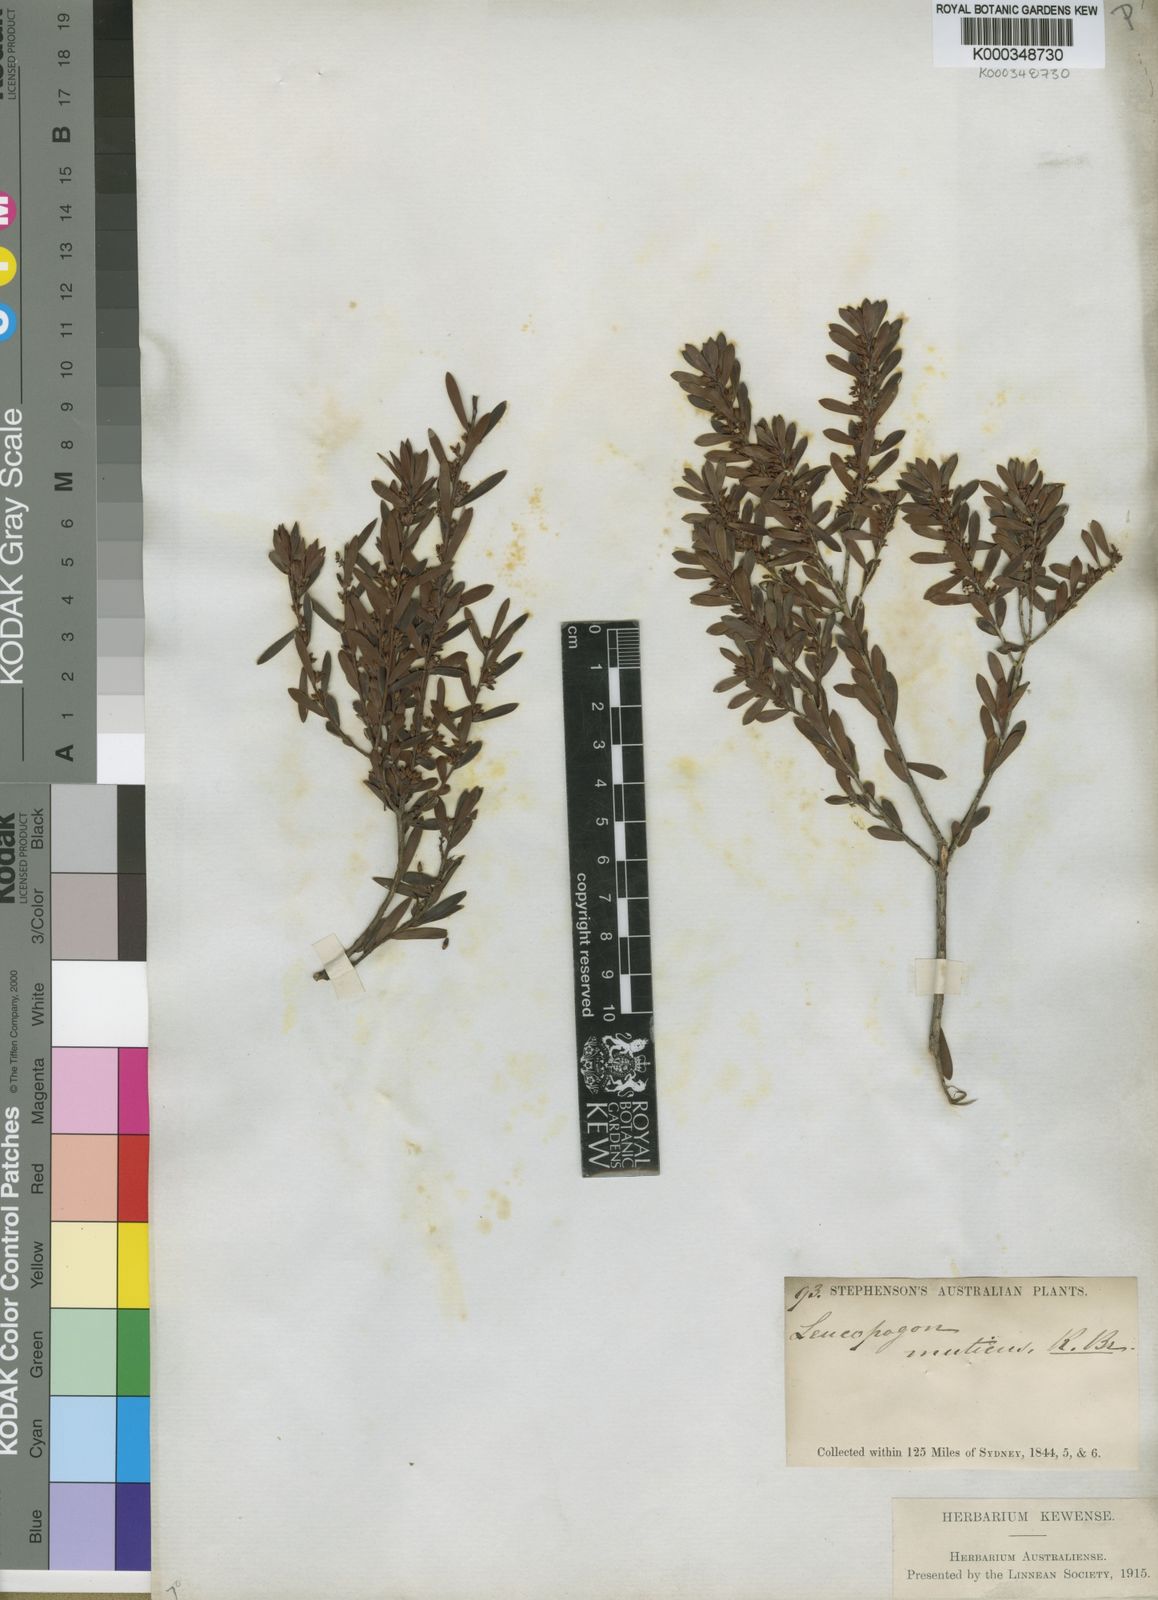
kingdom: Plantae
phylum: Tracheophyta
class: Magnoliopsida
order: Ericales
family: Ericaceae
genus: Styphelia
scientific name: Styphelia mutica
